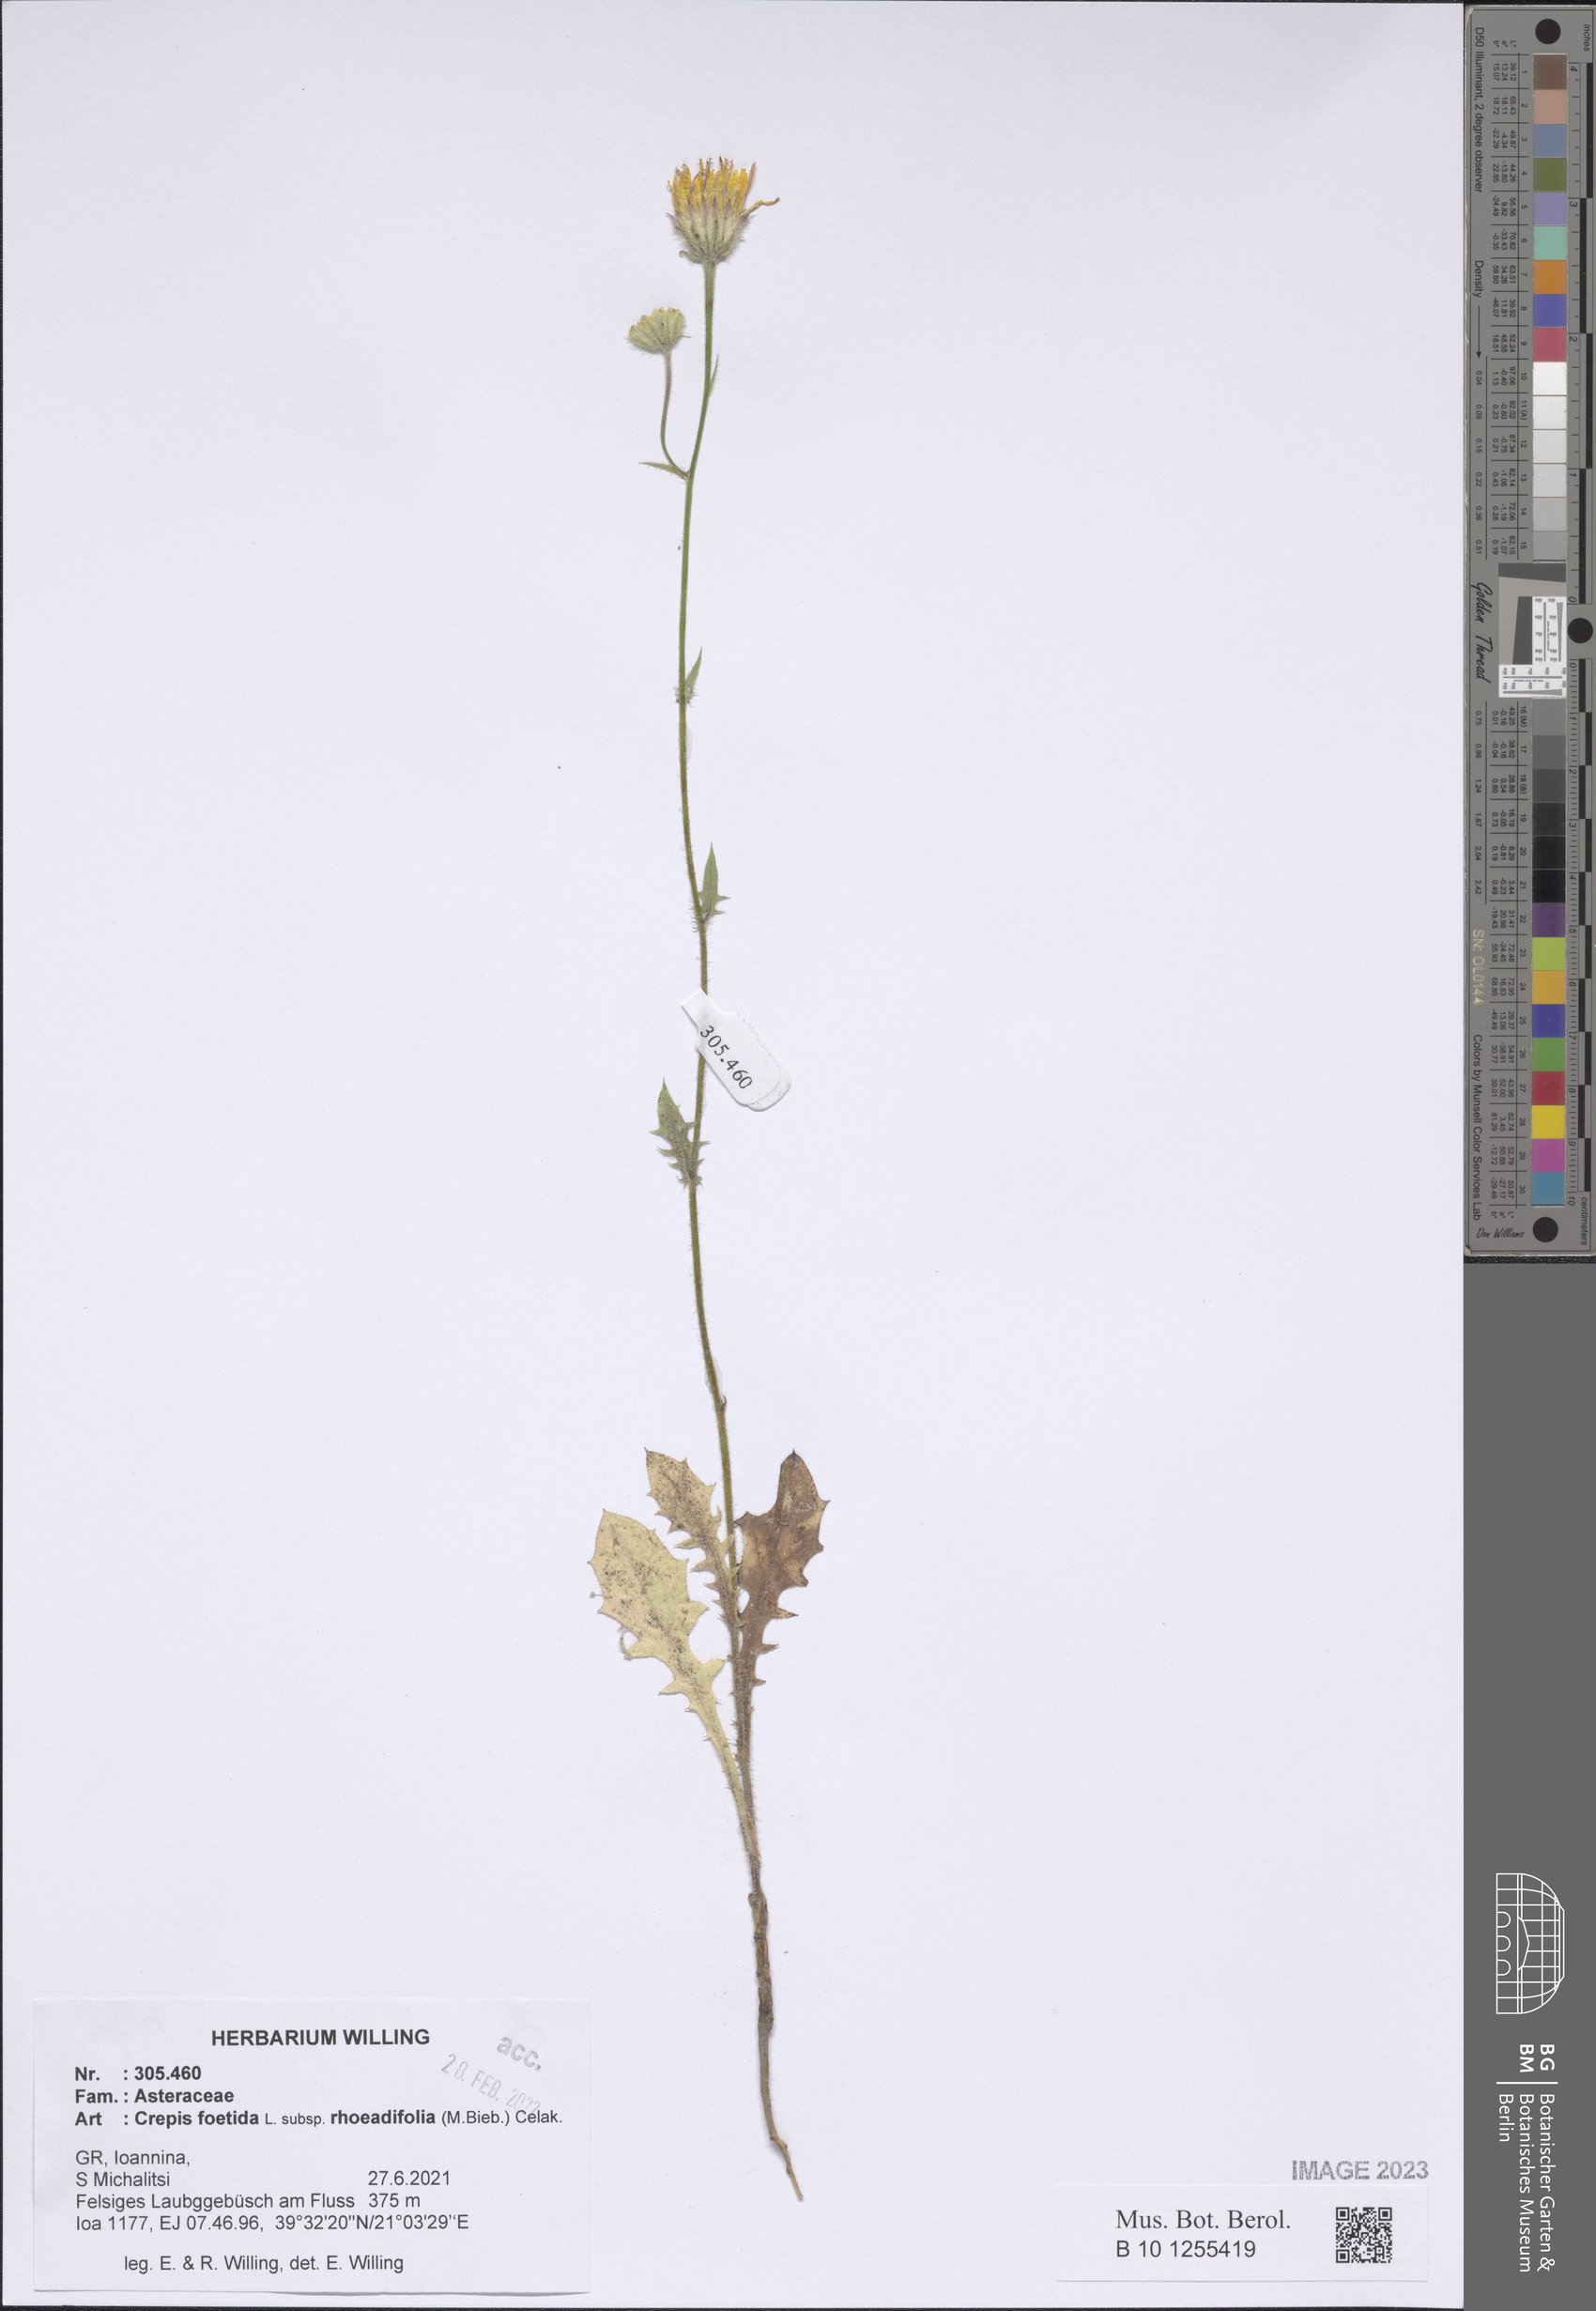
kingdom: Plantae
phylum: Tracheophyta
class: Magnoliopsida
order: Asterales
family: Asteraceae
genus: Crepis
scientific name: Crepis foetida
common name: Stinking hawk's-beard
